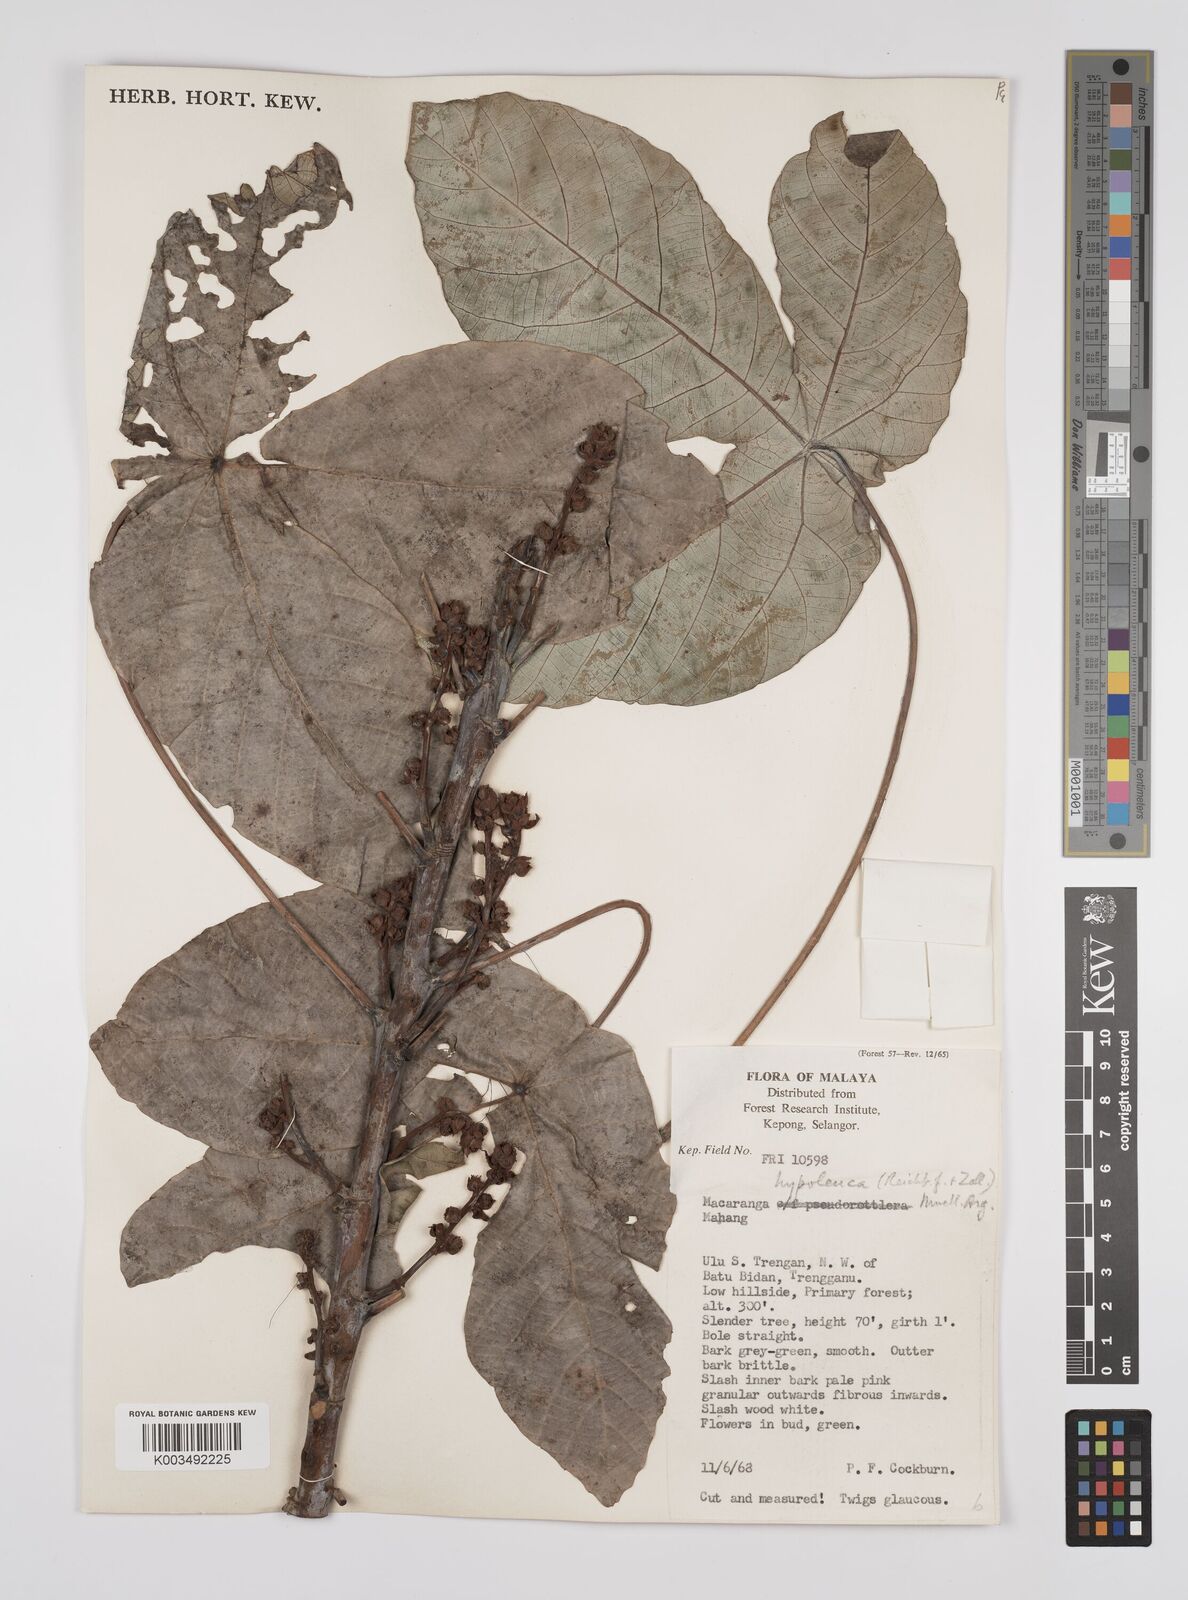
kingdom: Plantae
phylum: Tracheophyta
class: Magnoliopsida
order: Malpighiales
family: Euphorbiaceae
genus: Macaranga
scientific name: Macaranga hypoleuca
